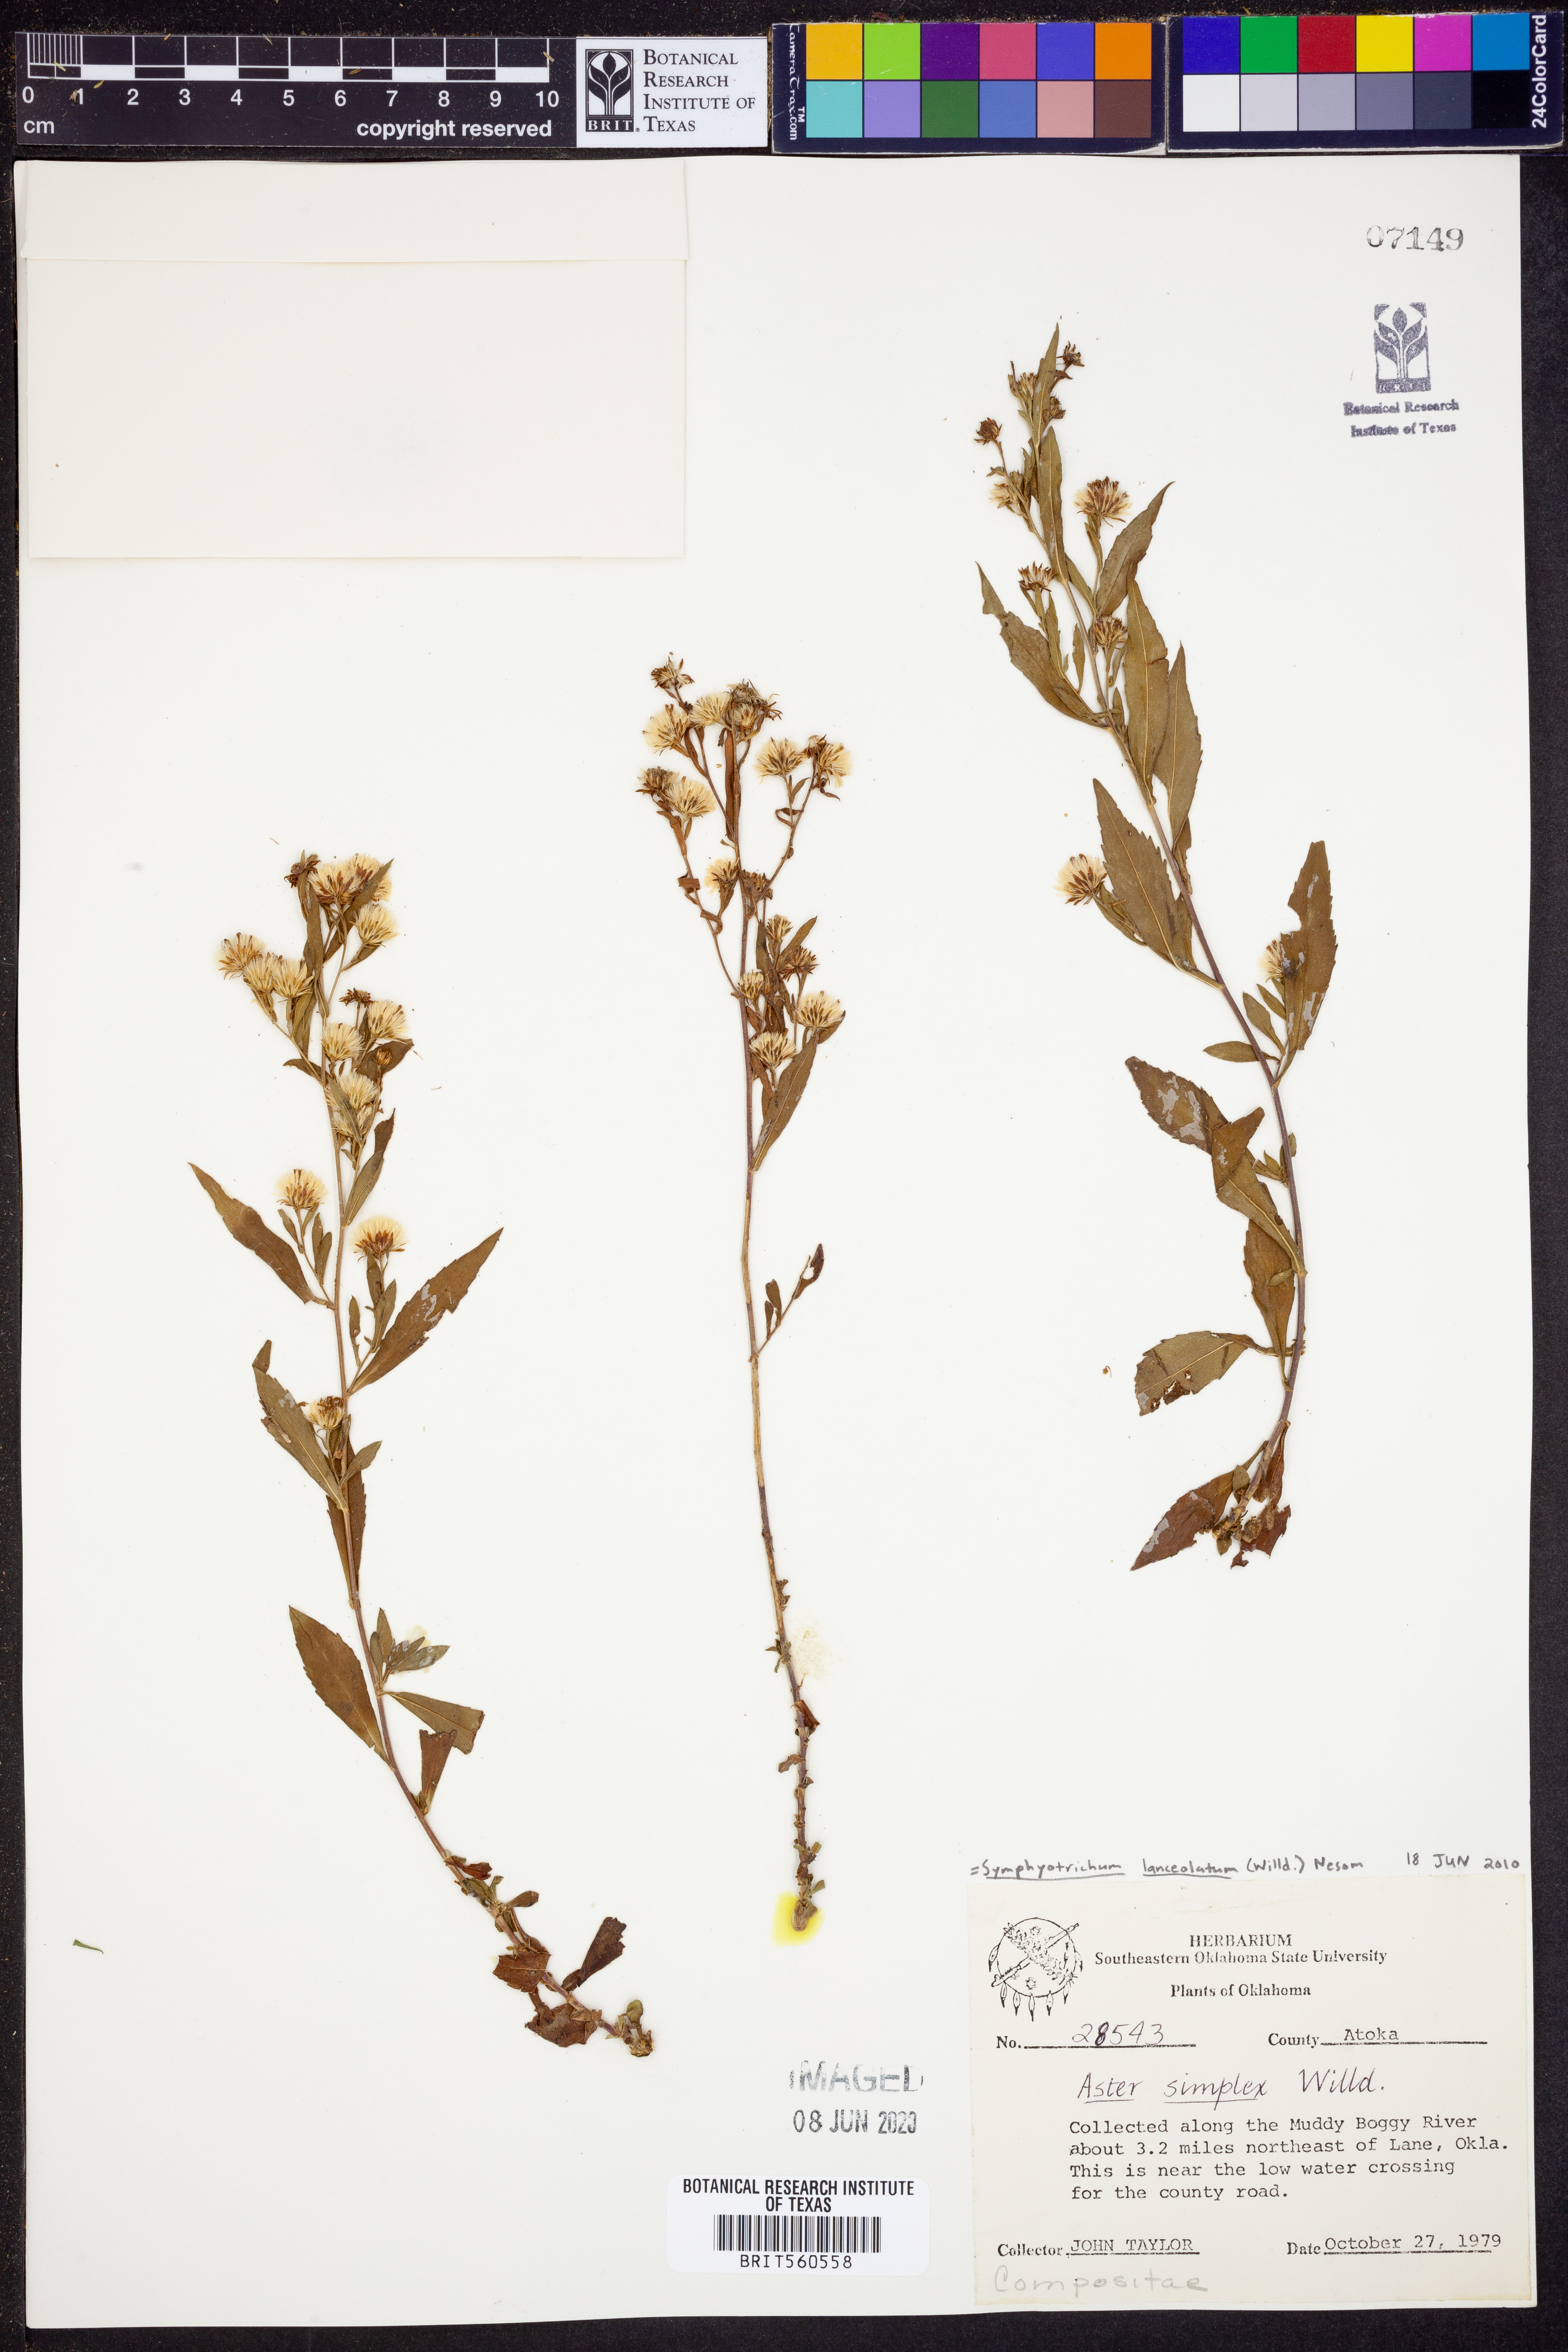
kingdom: Plantae
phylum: Tracheophyta
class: Magnoliopsida
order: Asterales
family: Asteraceae
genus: Symphyotrichum
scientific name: Symphyotrichum lanceolatum
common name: Panicled aster
